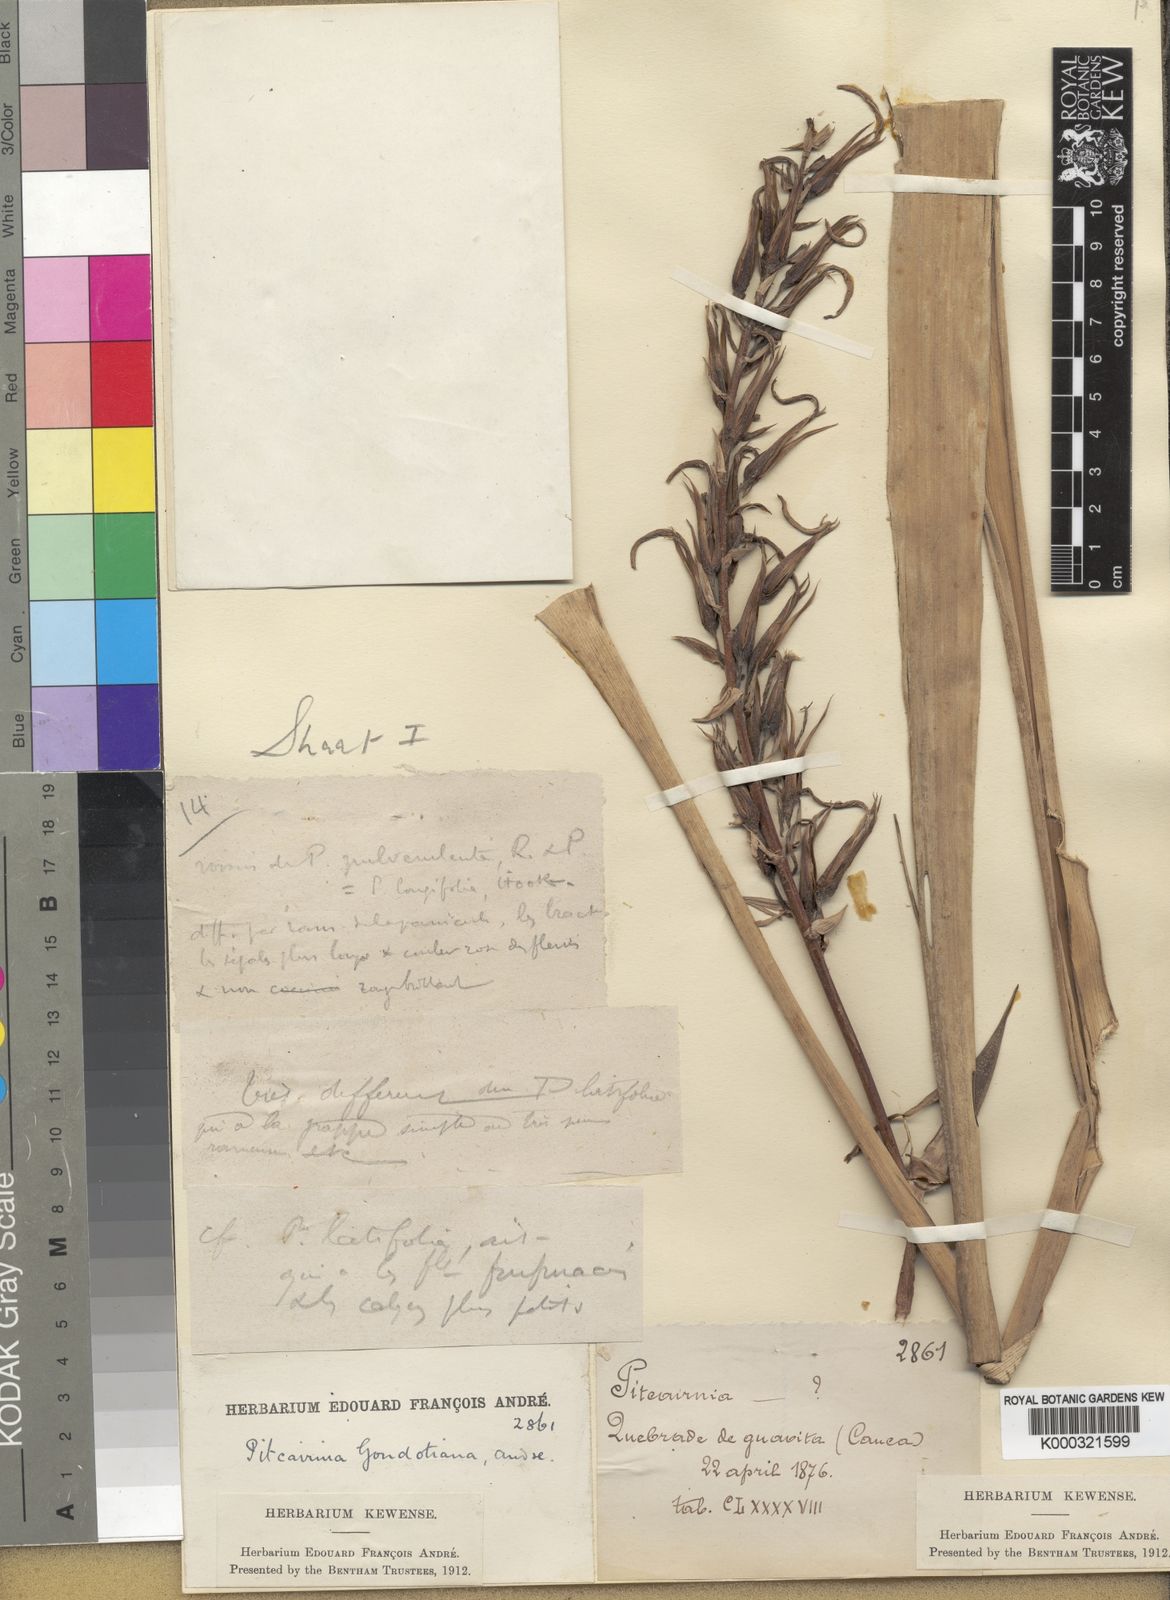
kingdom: Plantae
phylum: Tracheophyta
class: Liliopsida
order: Poales
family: Bromeliaceae
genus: Pitcairnia
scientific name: Pitcairnia megasepala
